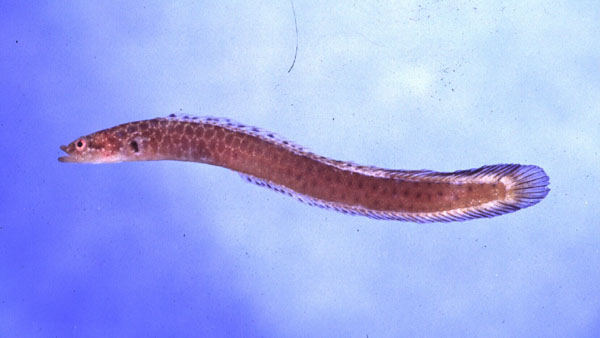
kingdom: Animalia
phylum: Chordata
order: Perciformes
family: Pseudochromidae
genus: Halimuraena
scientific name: Halimuraena shakai
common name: Zulu snakelet
